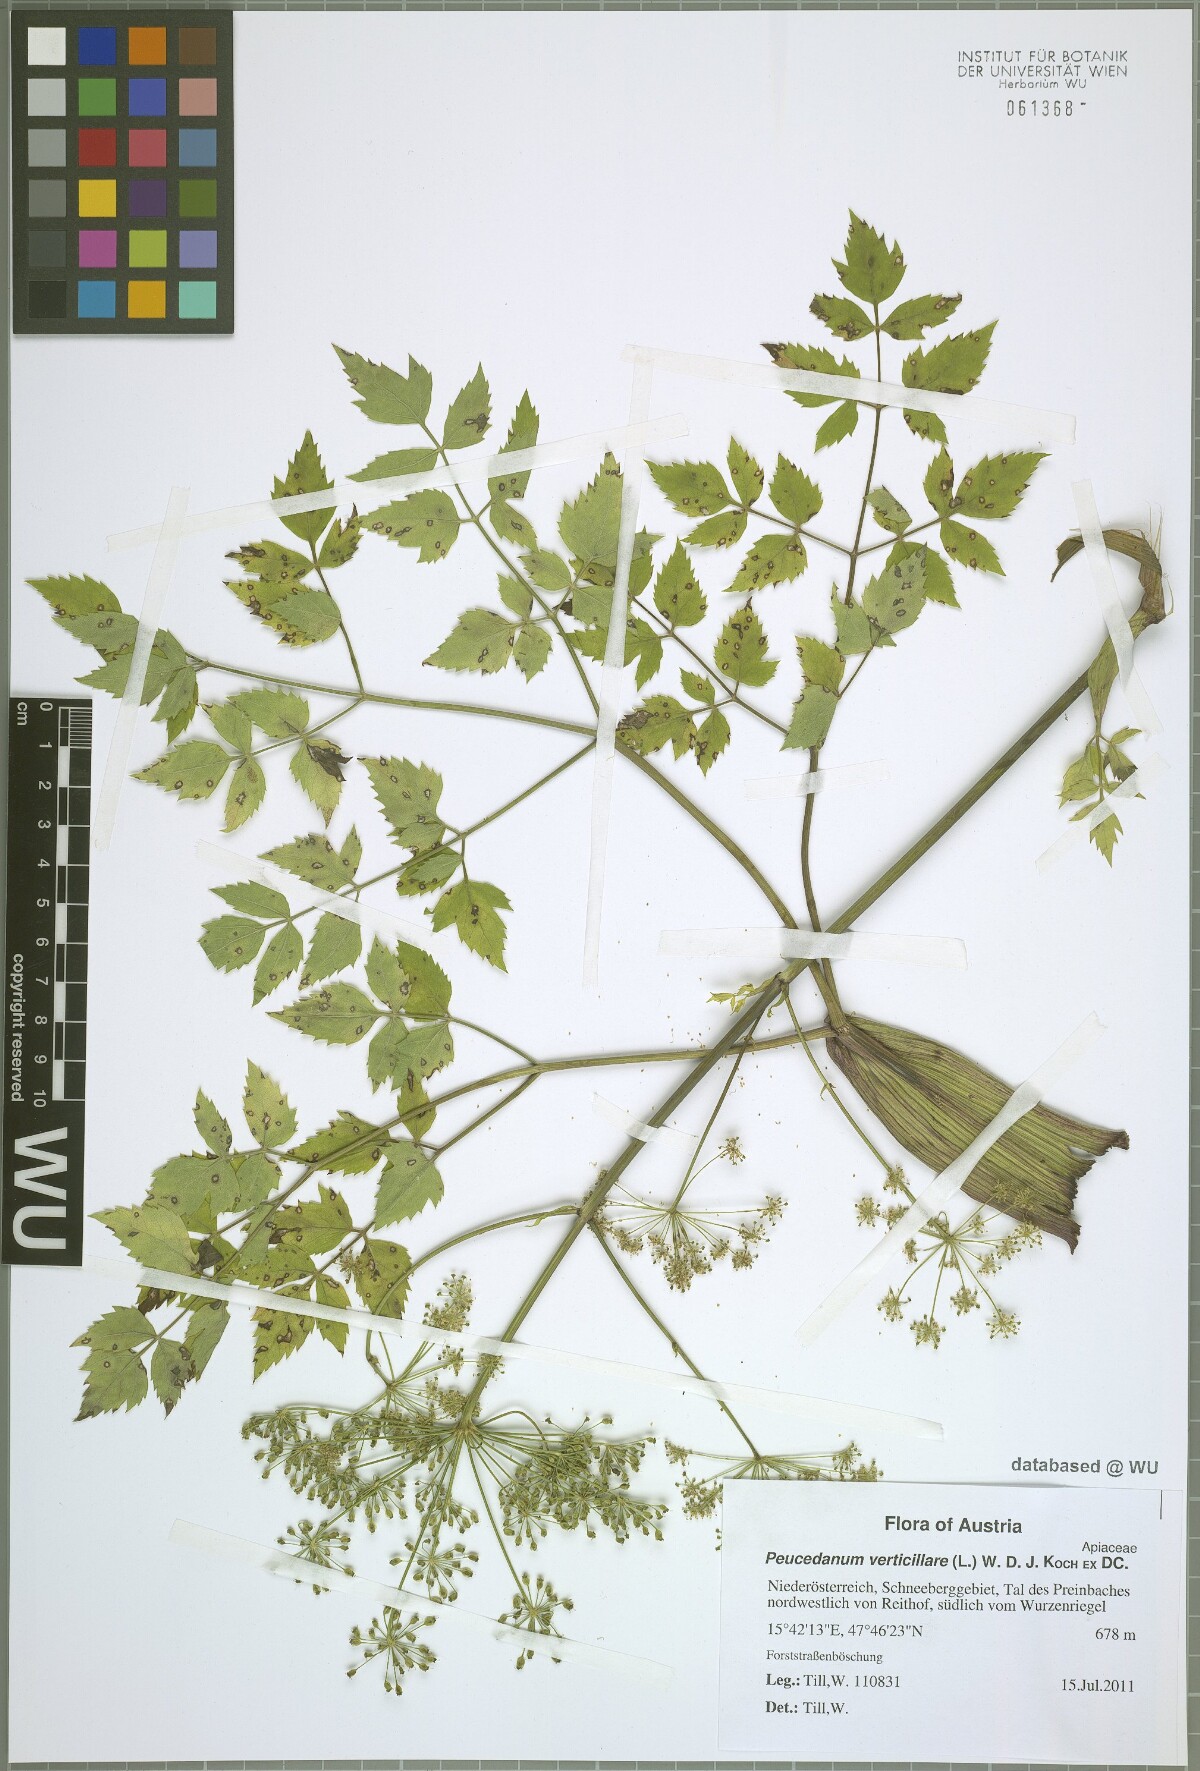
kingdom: Plantae
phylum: Tracheophyta
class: Magnoliopsida
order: Apiales
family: Apiaceae
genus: Tommasinia
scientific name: Tommasinia altissima
